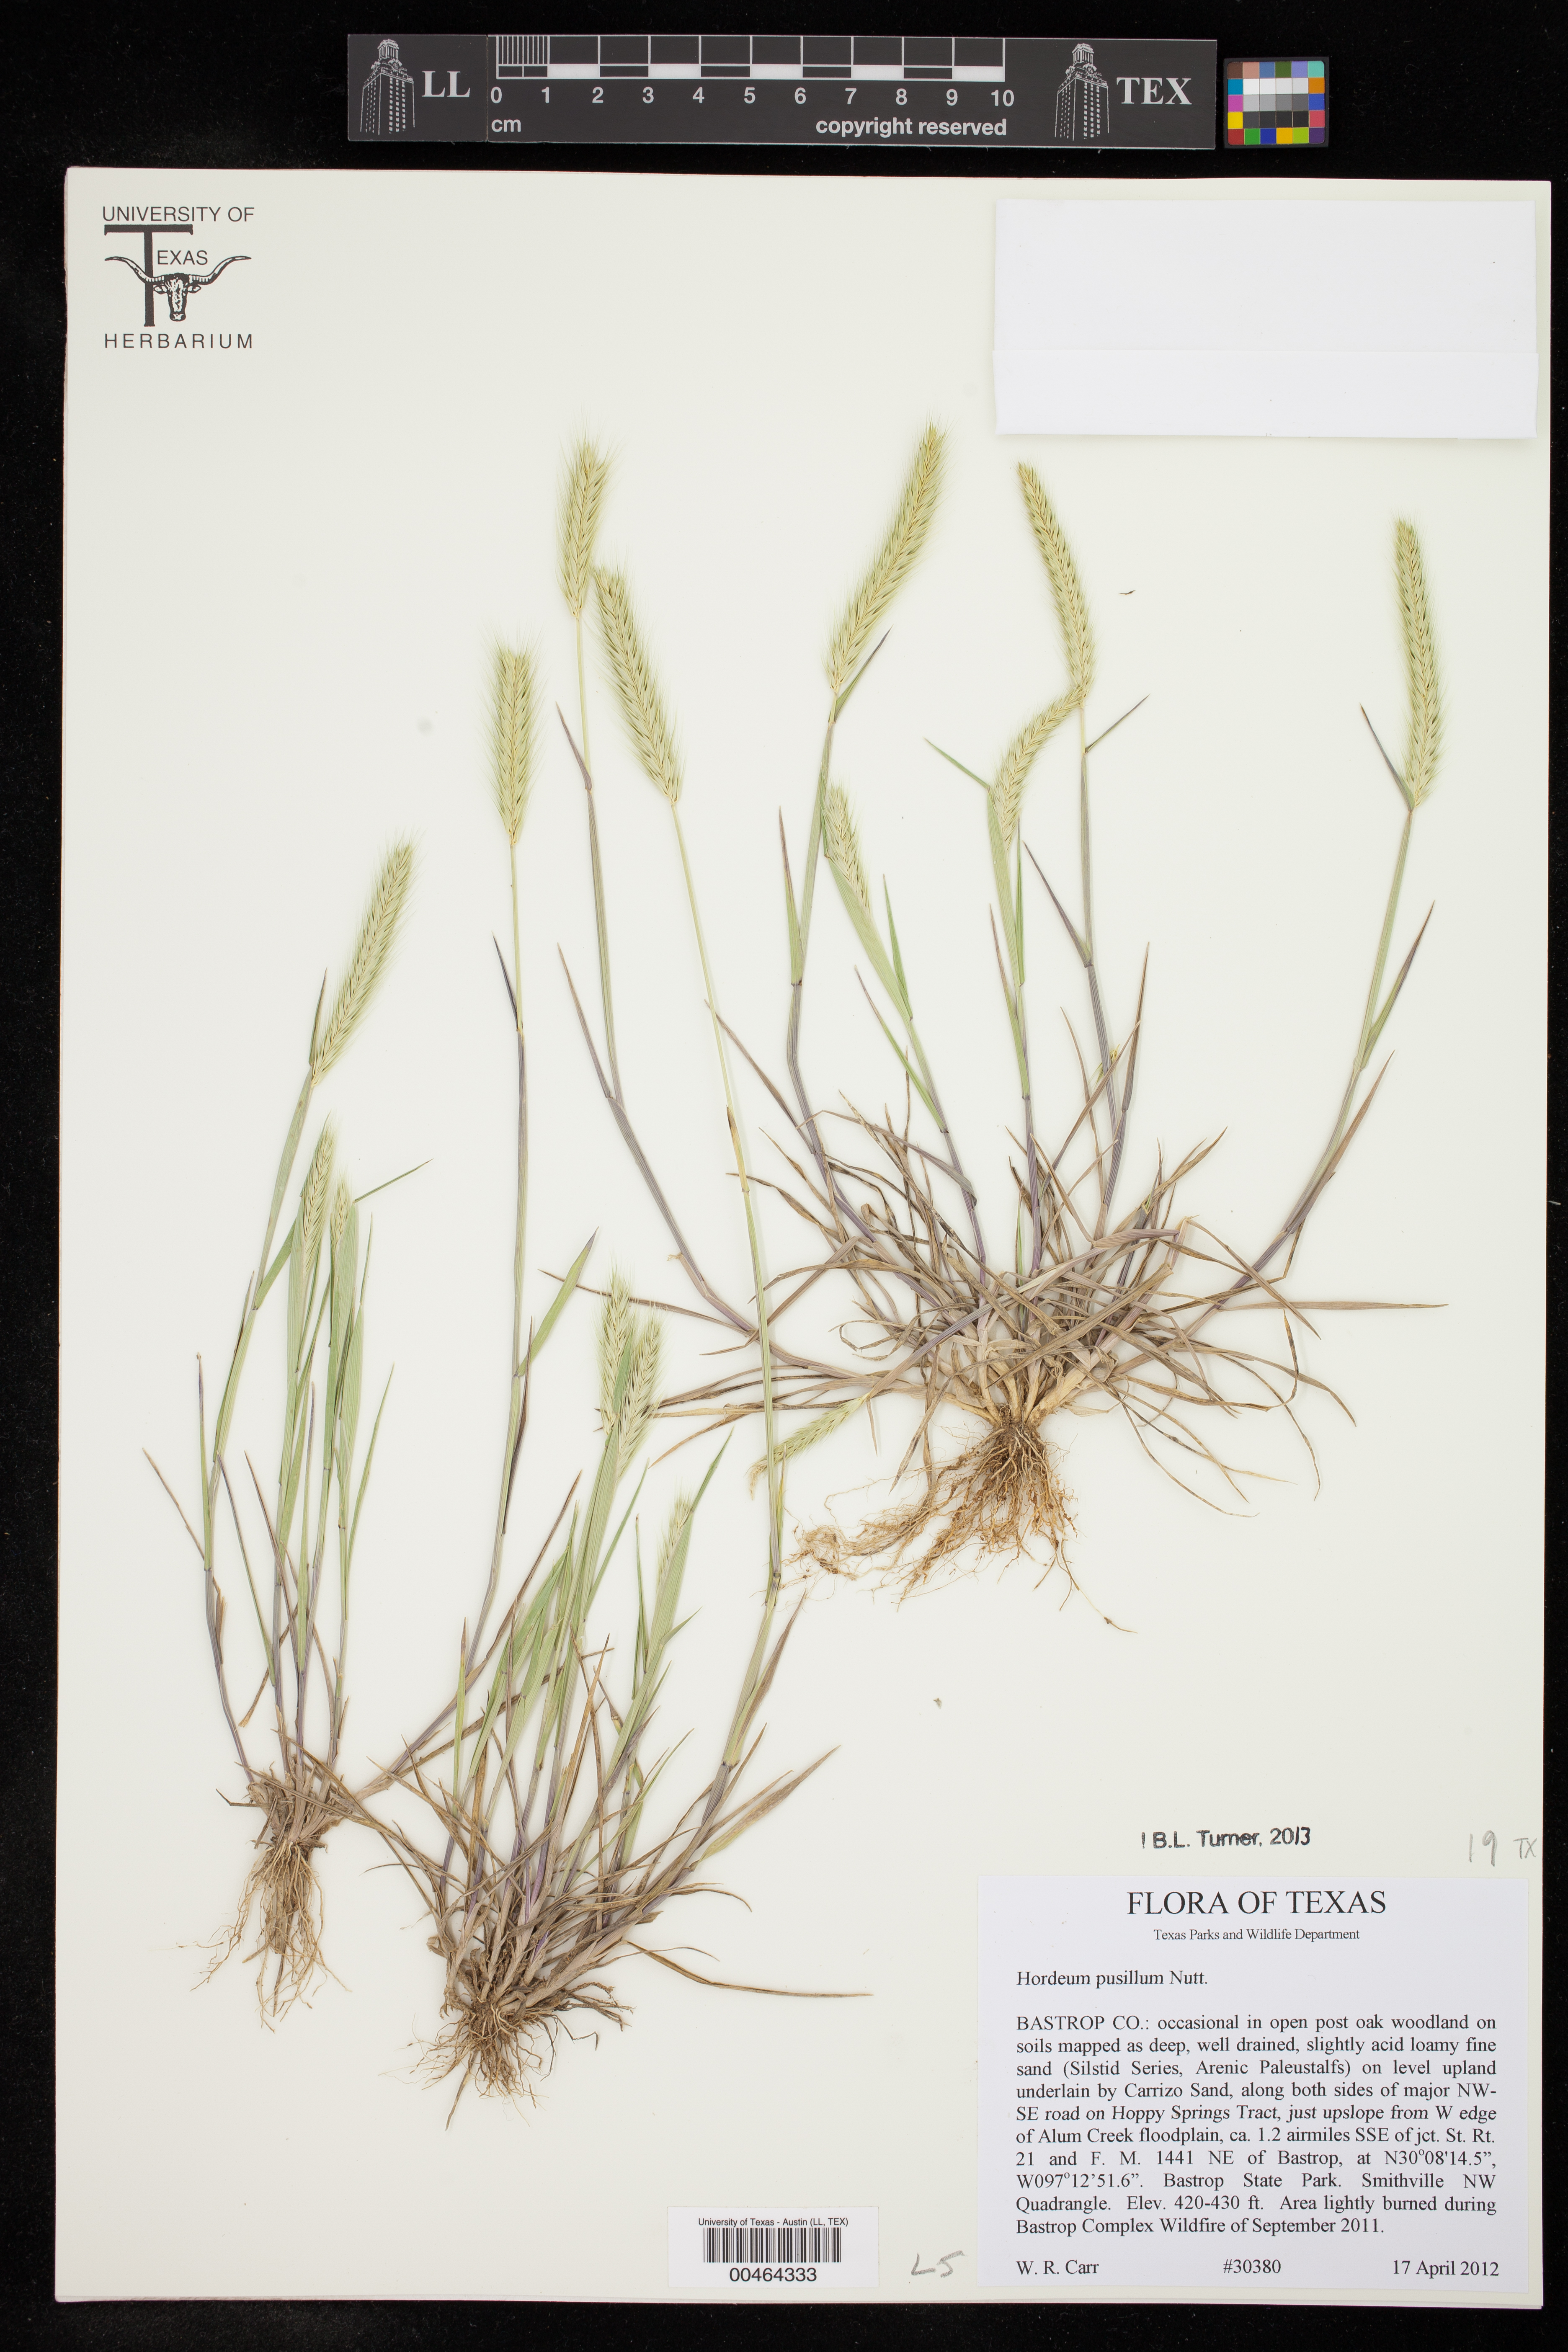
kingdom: Plantae
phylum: Tracheophyta
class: Liliopsida
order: Poales
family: Poaceae
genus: Hordeum
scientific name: Hordeum pusillum
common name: Little barley
